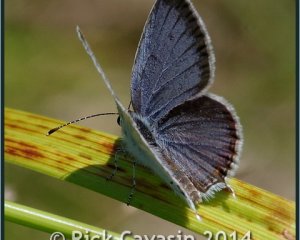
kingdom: Animalia
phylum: Arthropoda
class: Insecta
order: Lepidoptera
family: Lycaenidae
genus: Elkalyce
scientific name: Elkalyce comyntas
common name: Eastern Tailed-Blue
